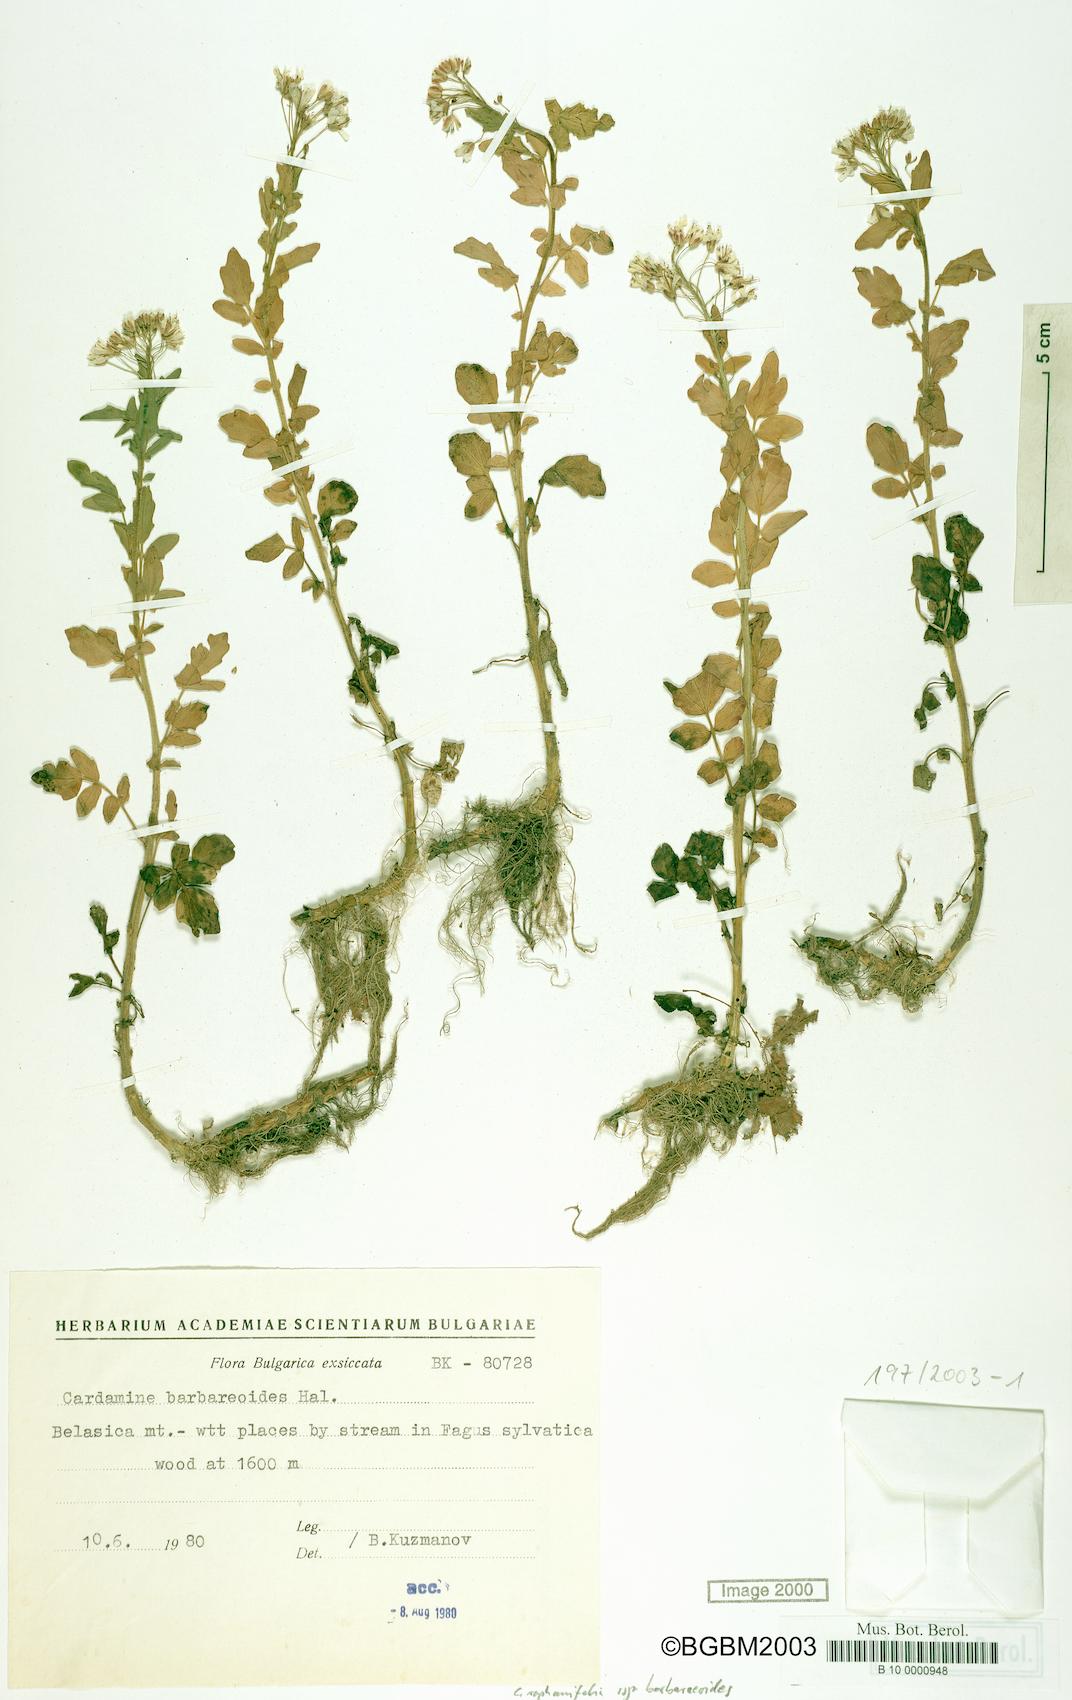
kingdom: Plantae
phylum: Tracheophyta
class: Magnoliopsida
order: Brassicales
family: Brassicaceae
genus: Cardamine
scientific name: Cardamine raphanifolia
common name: Greater cuckooflower
